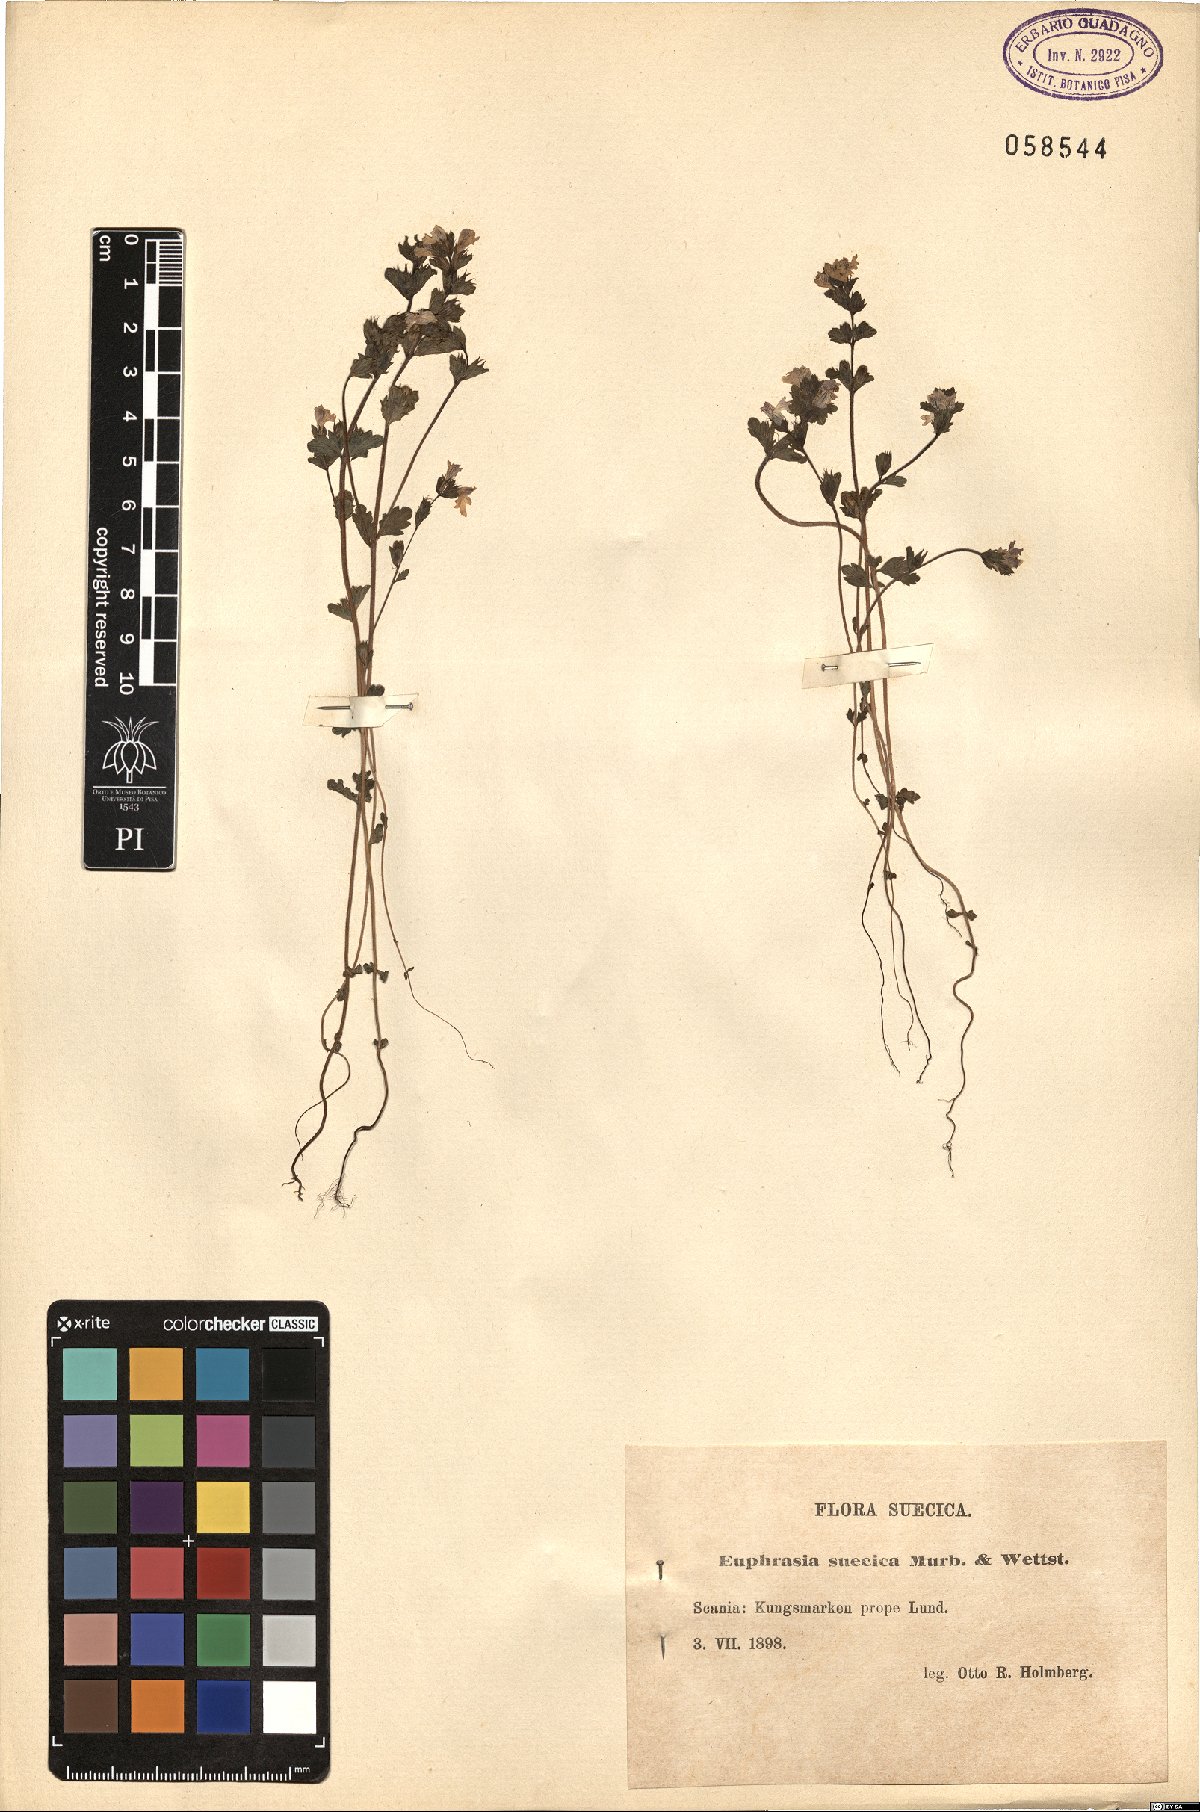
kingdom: Plantae
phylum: Tracheophyta
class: Magnoliopsida
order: Lamiales
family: Orobanchaceae
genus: Euphrasia
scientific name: Euphrasia stricta
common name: Drug eyebright
